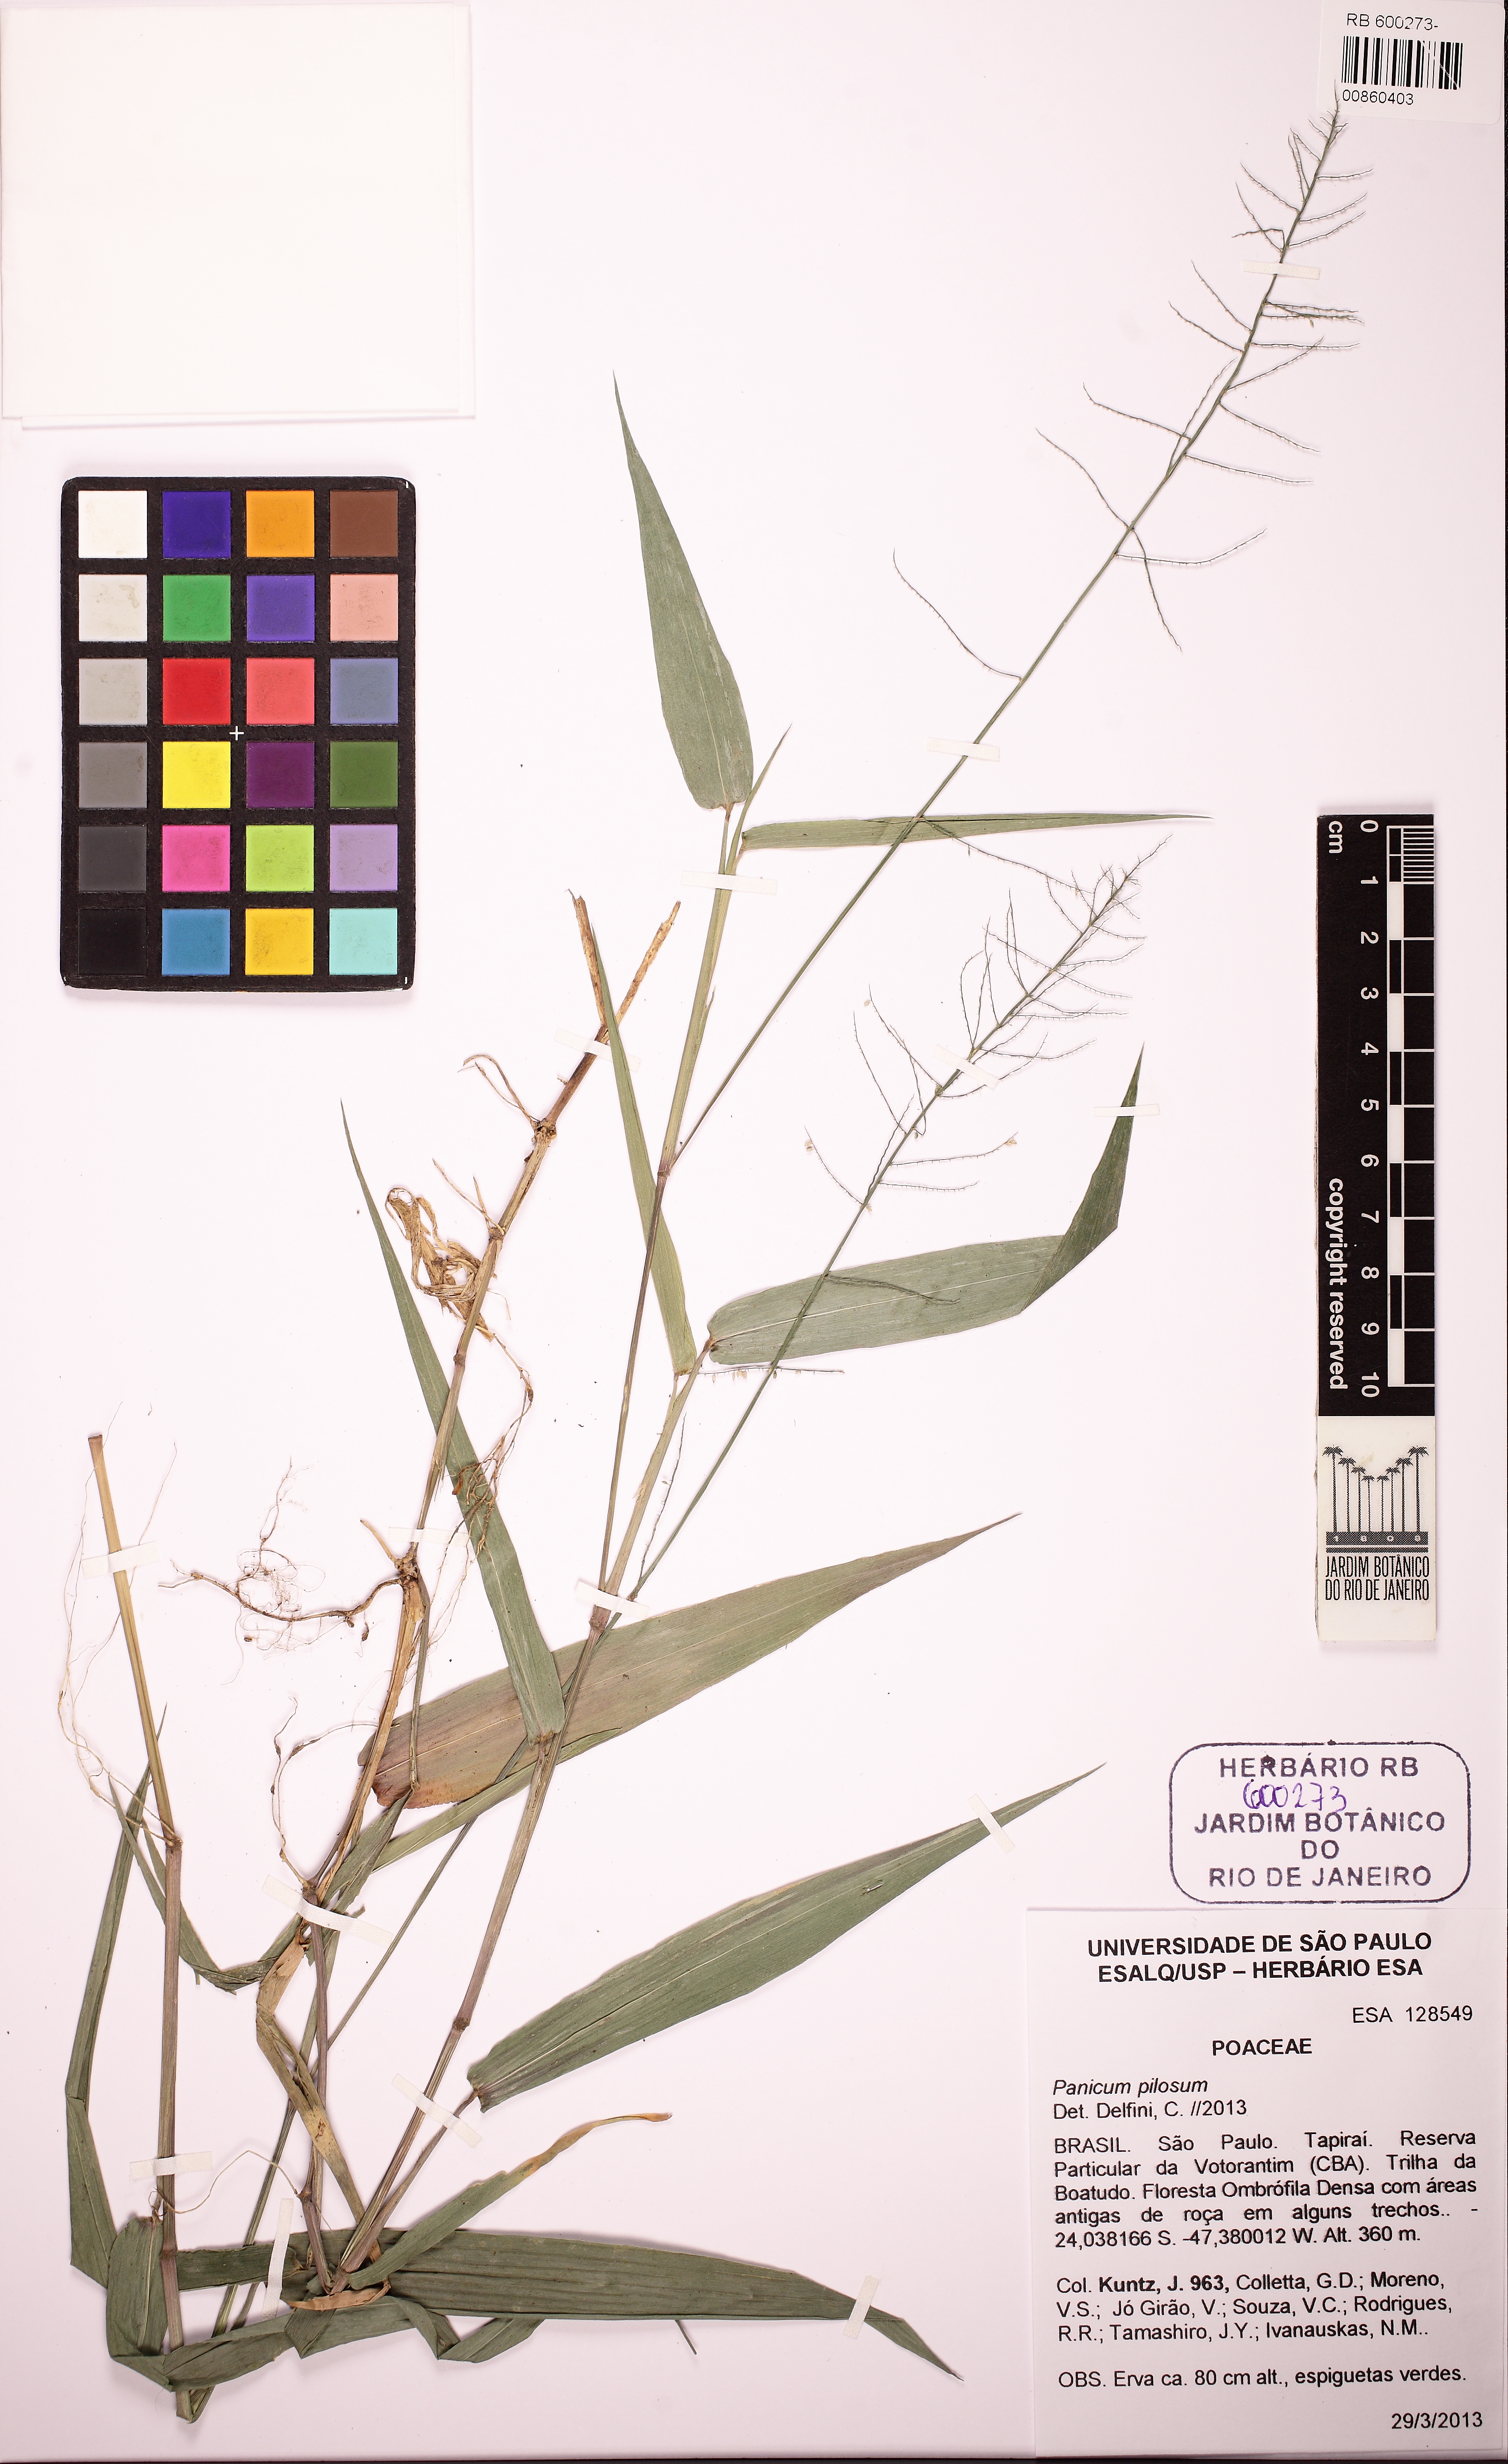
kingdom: Plantae
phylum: Tracheophyta
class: Liliopsida
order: Poales
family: Poaceae
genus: Rugoloa
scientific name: Rugoloa pilosa
